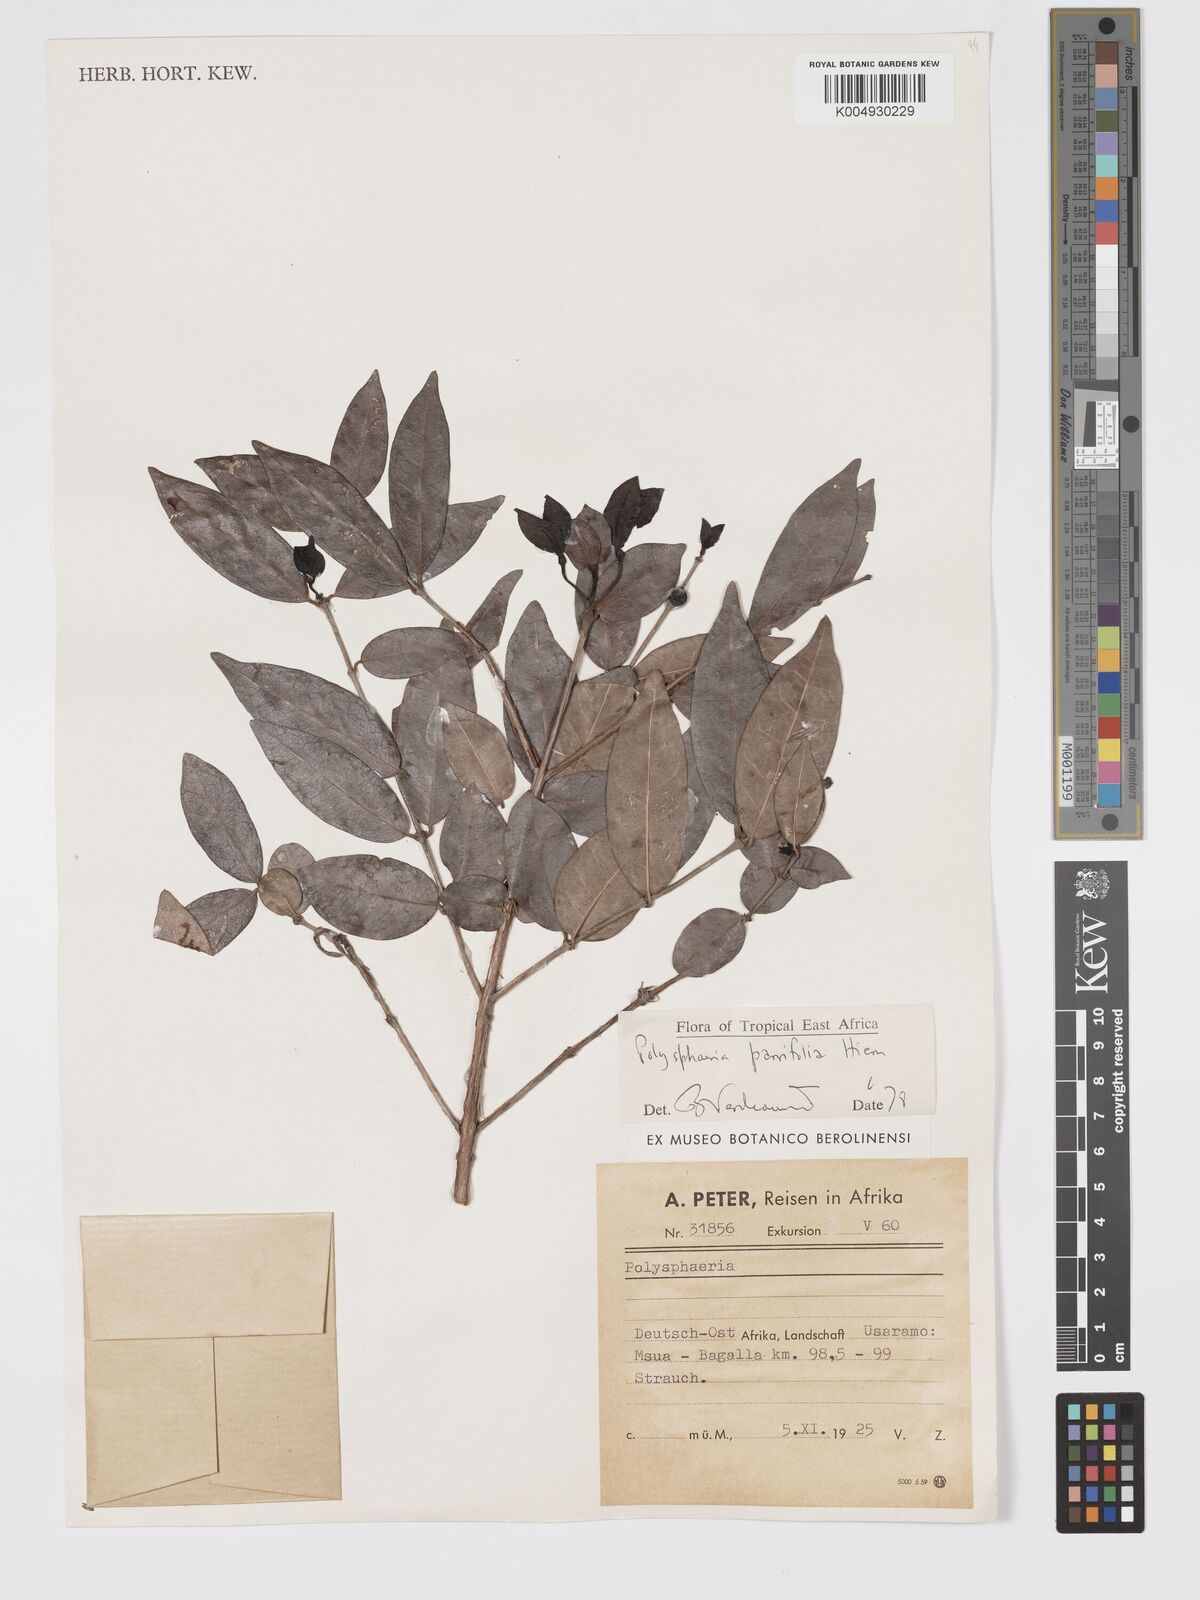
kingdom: Plantae
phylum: Tracheophyta
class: Magnoliopsida
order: Gentianales
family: Rubiaceae
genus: Polysphaeria
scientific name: Polysphaeria parvifolia
